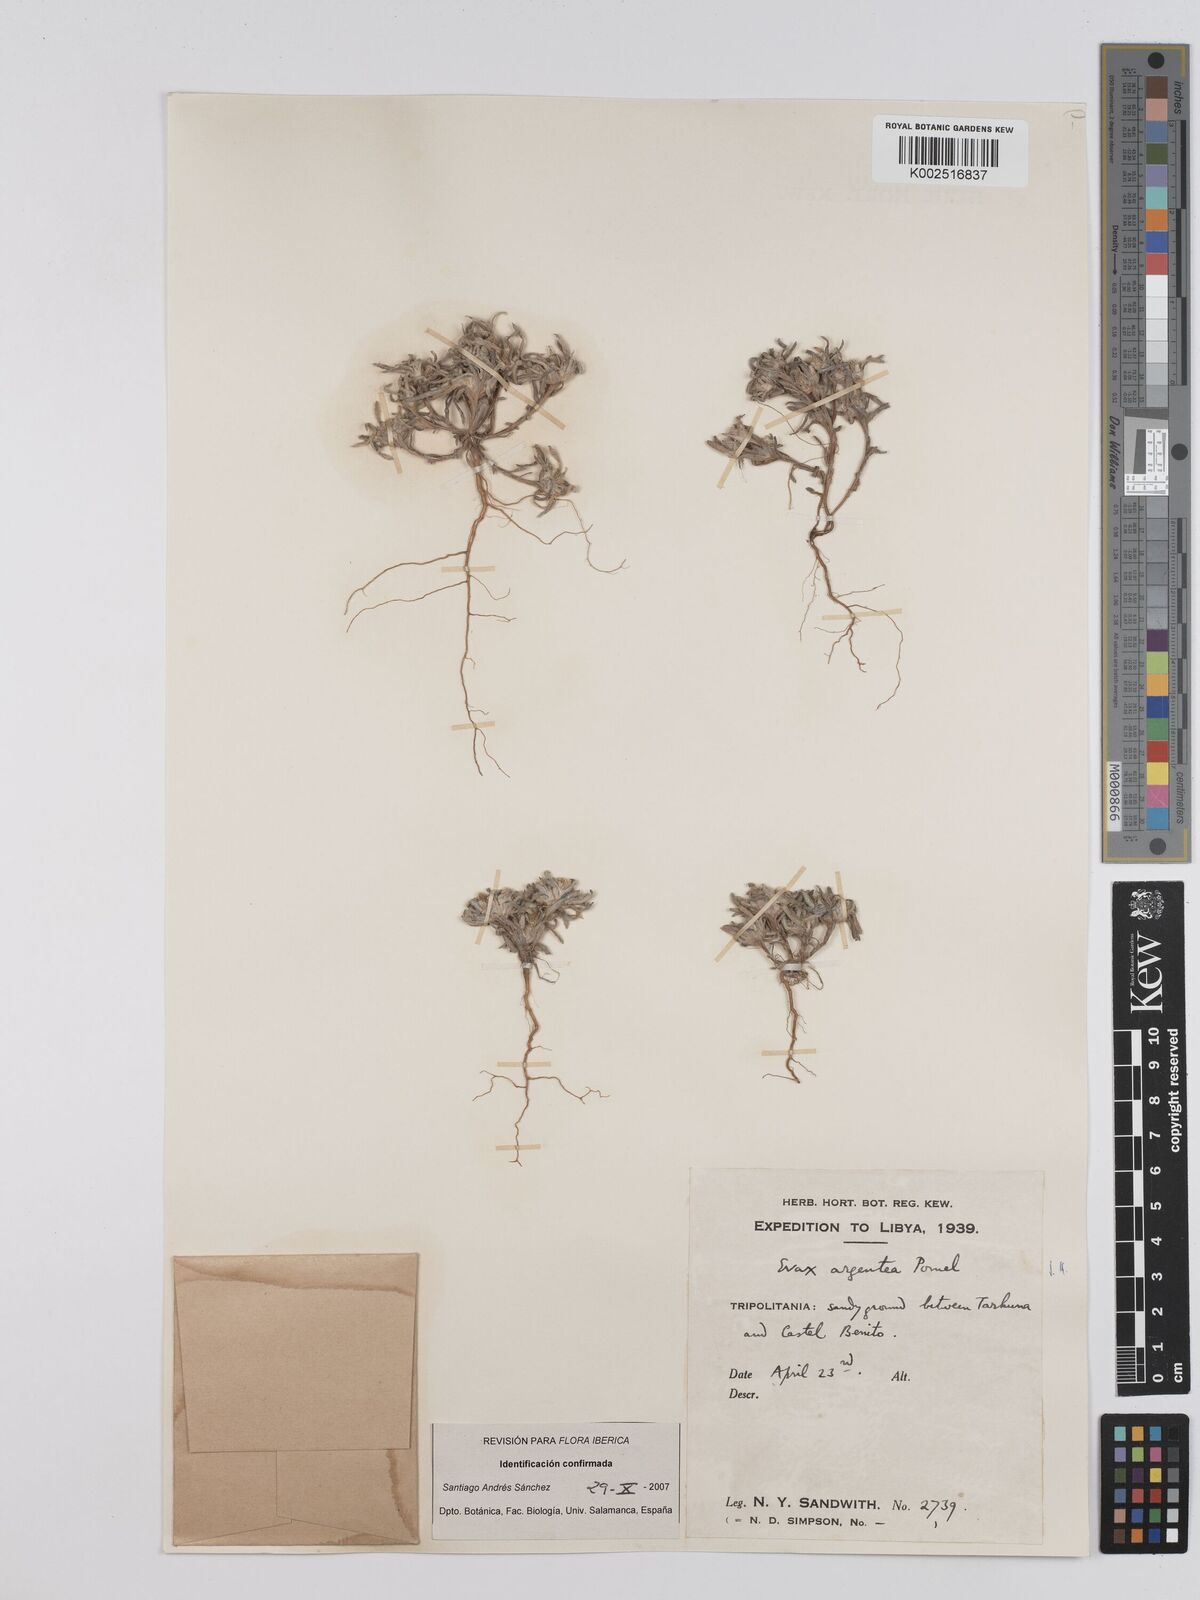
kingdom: Plantae
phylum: Tracheophyta
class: Magnoliopsida
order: Asterales
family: Asteraceae
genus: Filago
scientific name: Filago argentea
